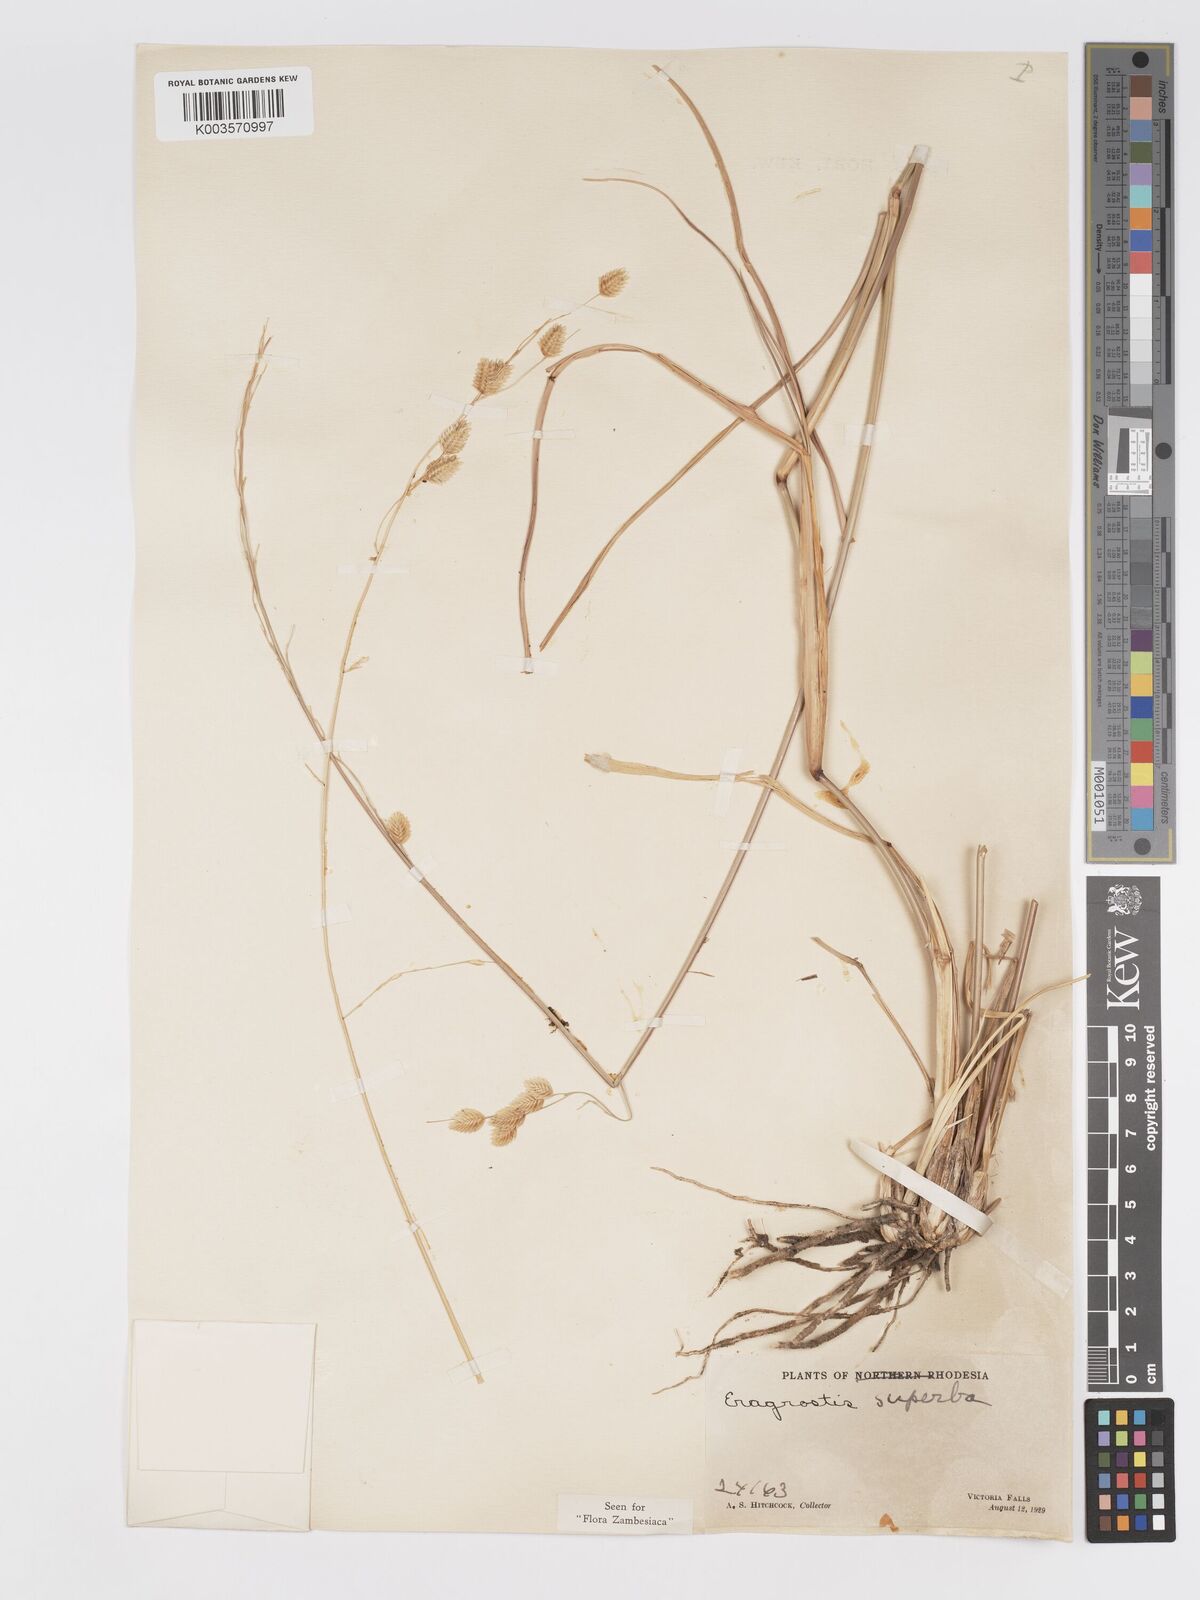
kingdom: Plantae
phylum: Tracheophyta
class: Liliopsida
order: Poales
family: Poaceae
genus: Eragrostis
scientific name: Eragrostis superba
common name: Wilman lovegrass
